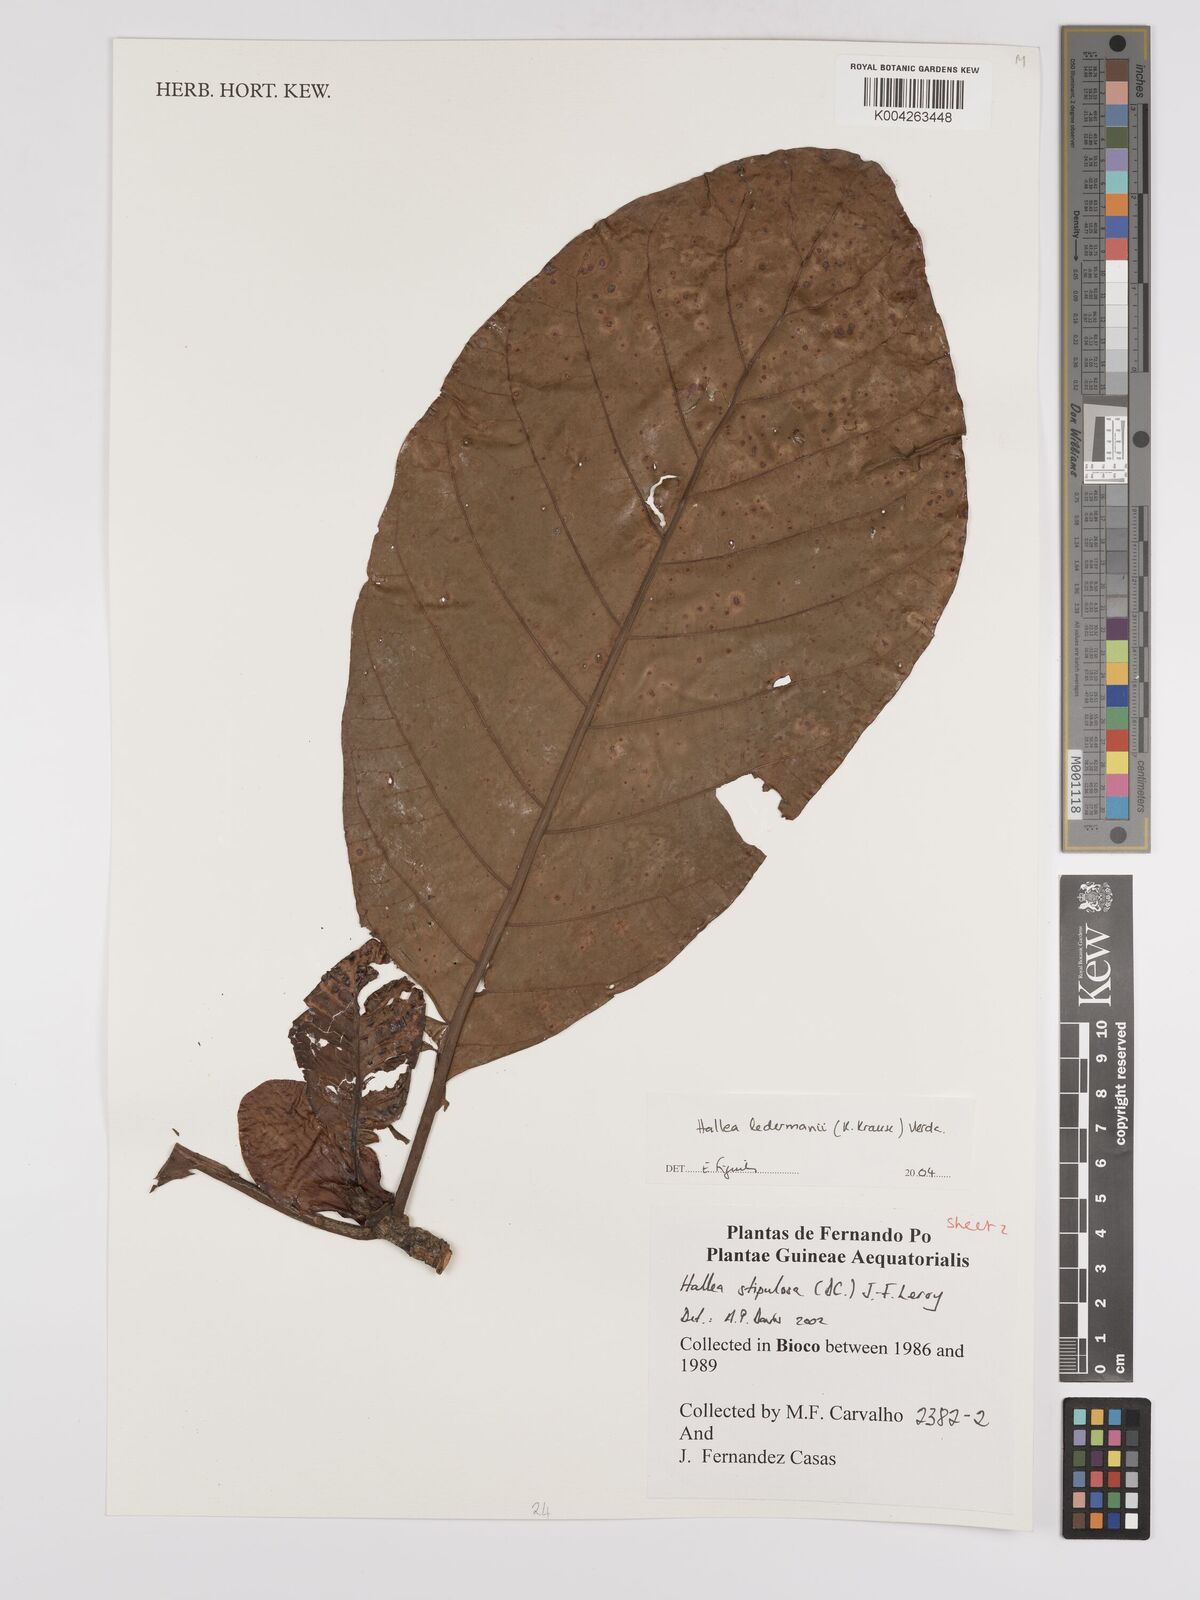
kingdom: Plantae
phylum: Tracheophyta
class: Magnoliopsida
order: Gentianales
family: Rubiaceae
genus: Mitragyna
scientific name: Mitragyna stipulosa
